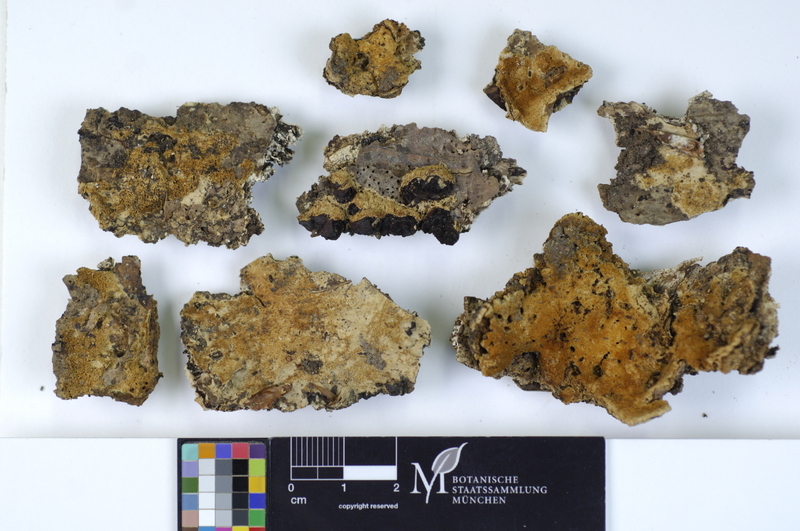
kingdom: Fungi
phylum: Basidiomycota
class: Agaricomycetes
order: Hymenochaetales
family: Schizoporaceae
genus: Xylodon
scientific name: Xylodon flaviporus
